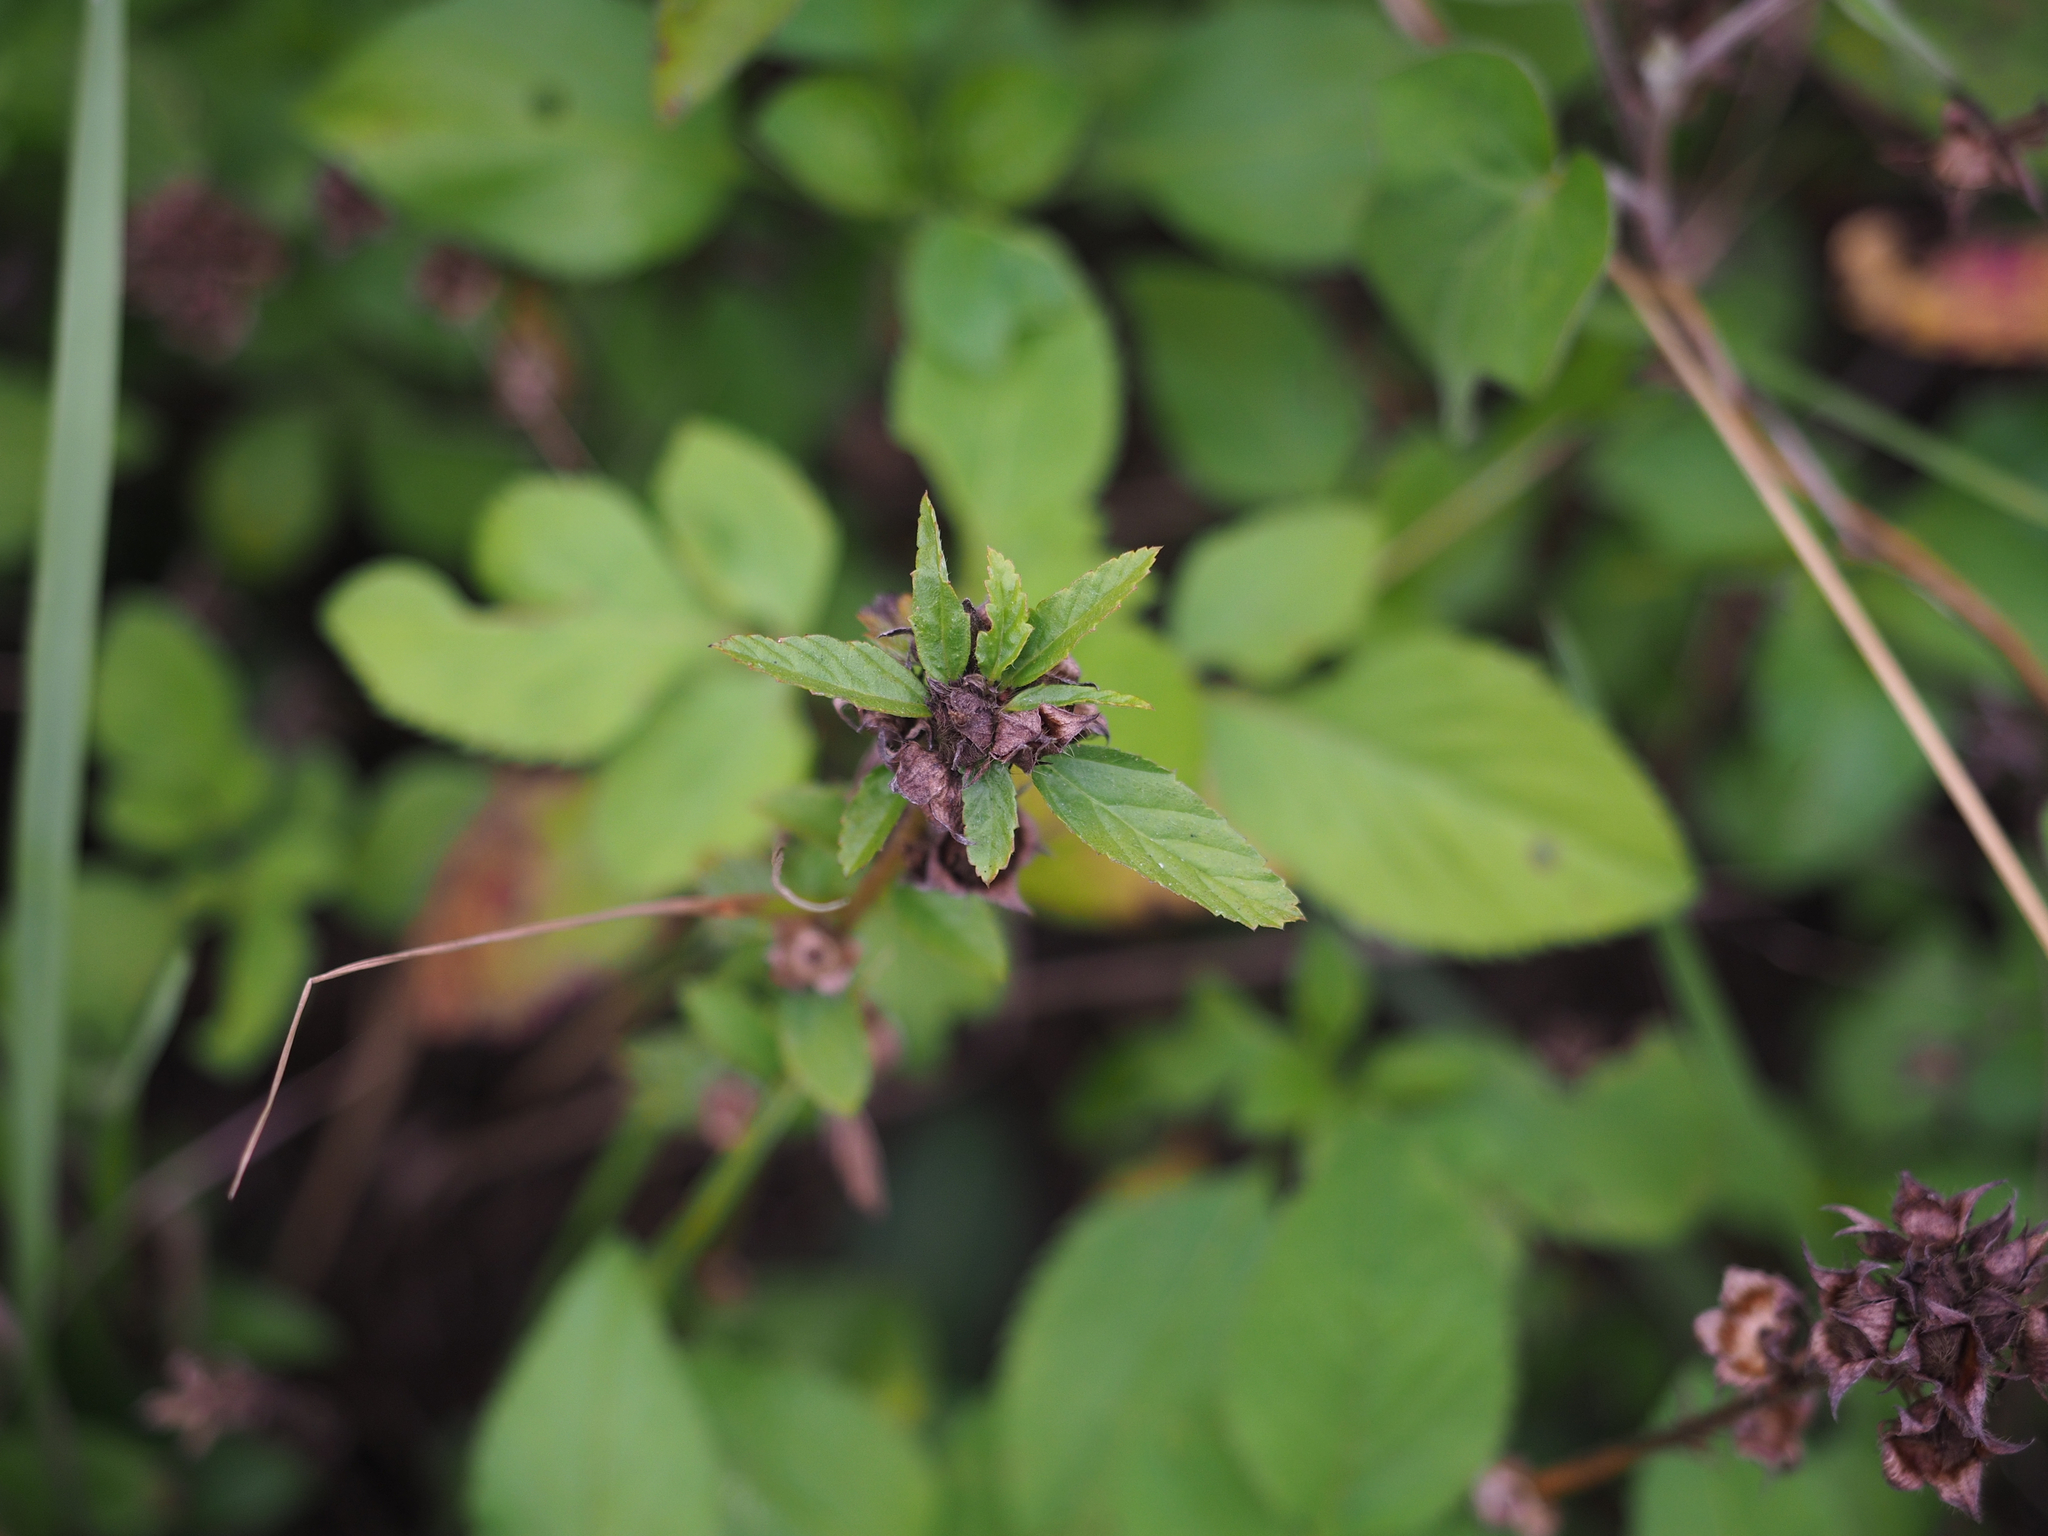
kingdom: Plantae
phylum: Tracheophyta
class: Magnoliopsida
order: Malvales
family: Malvaceae
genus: Malvastrum
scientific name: Malvastrum coromandelianum
